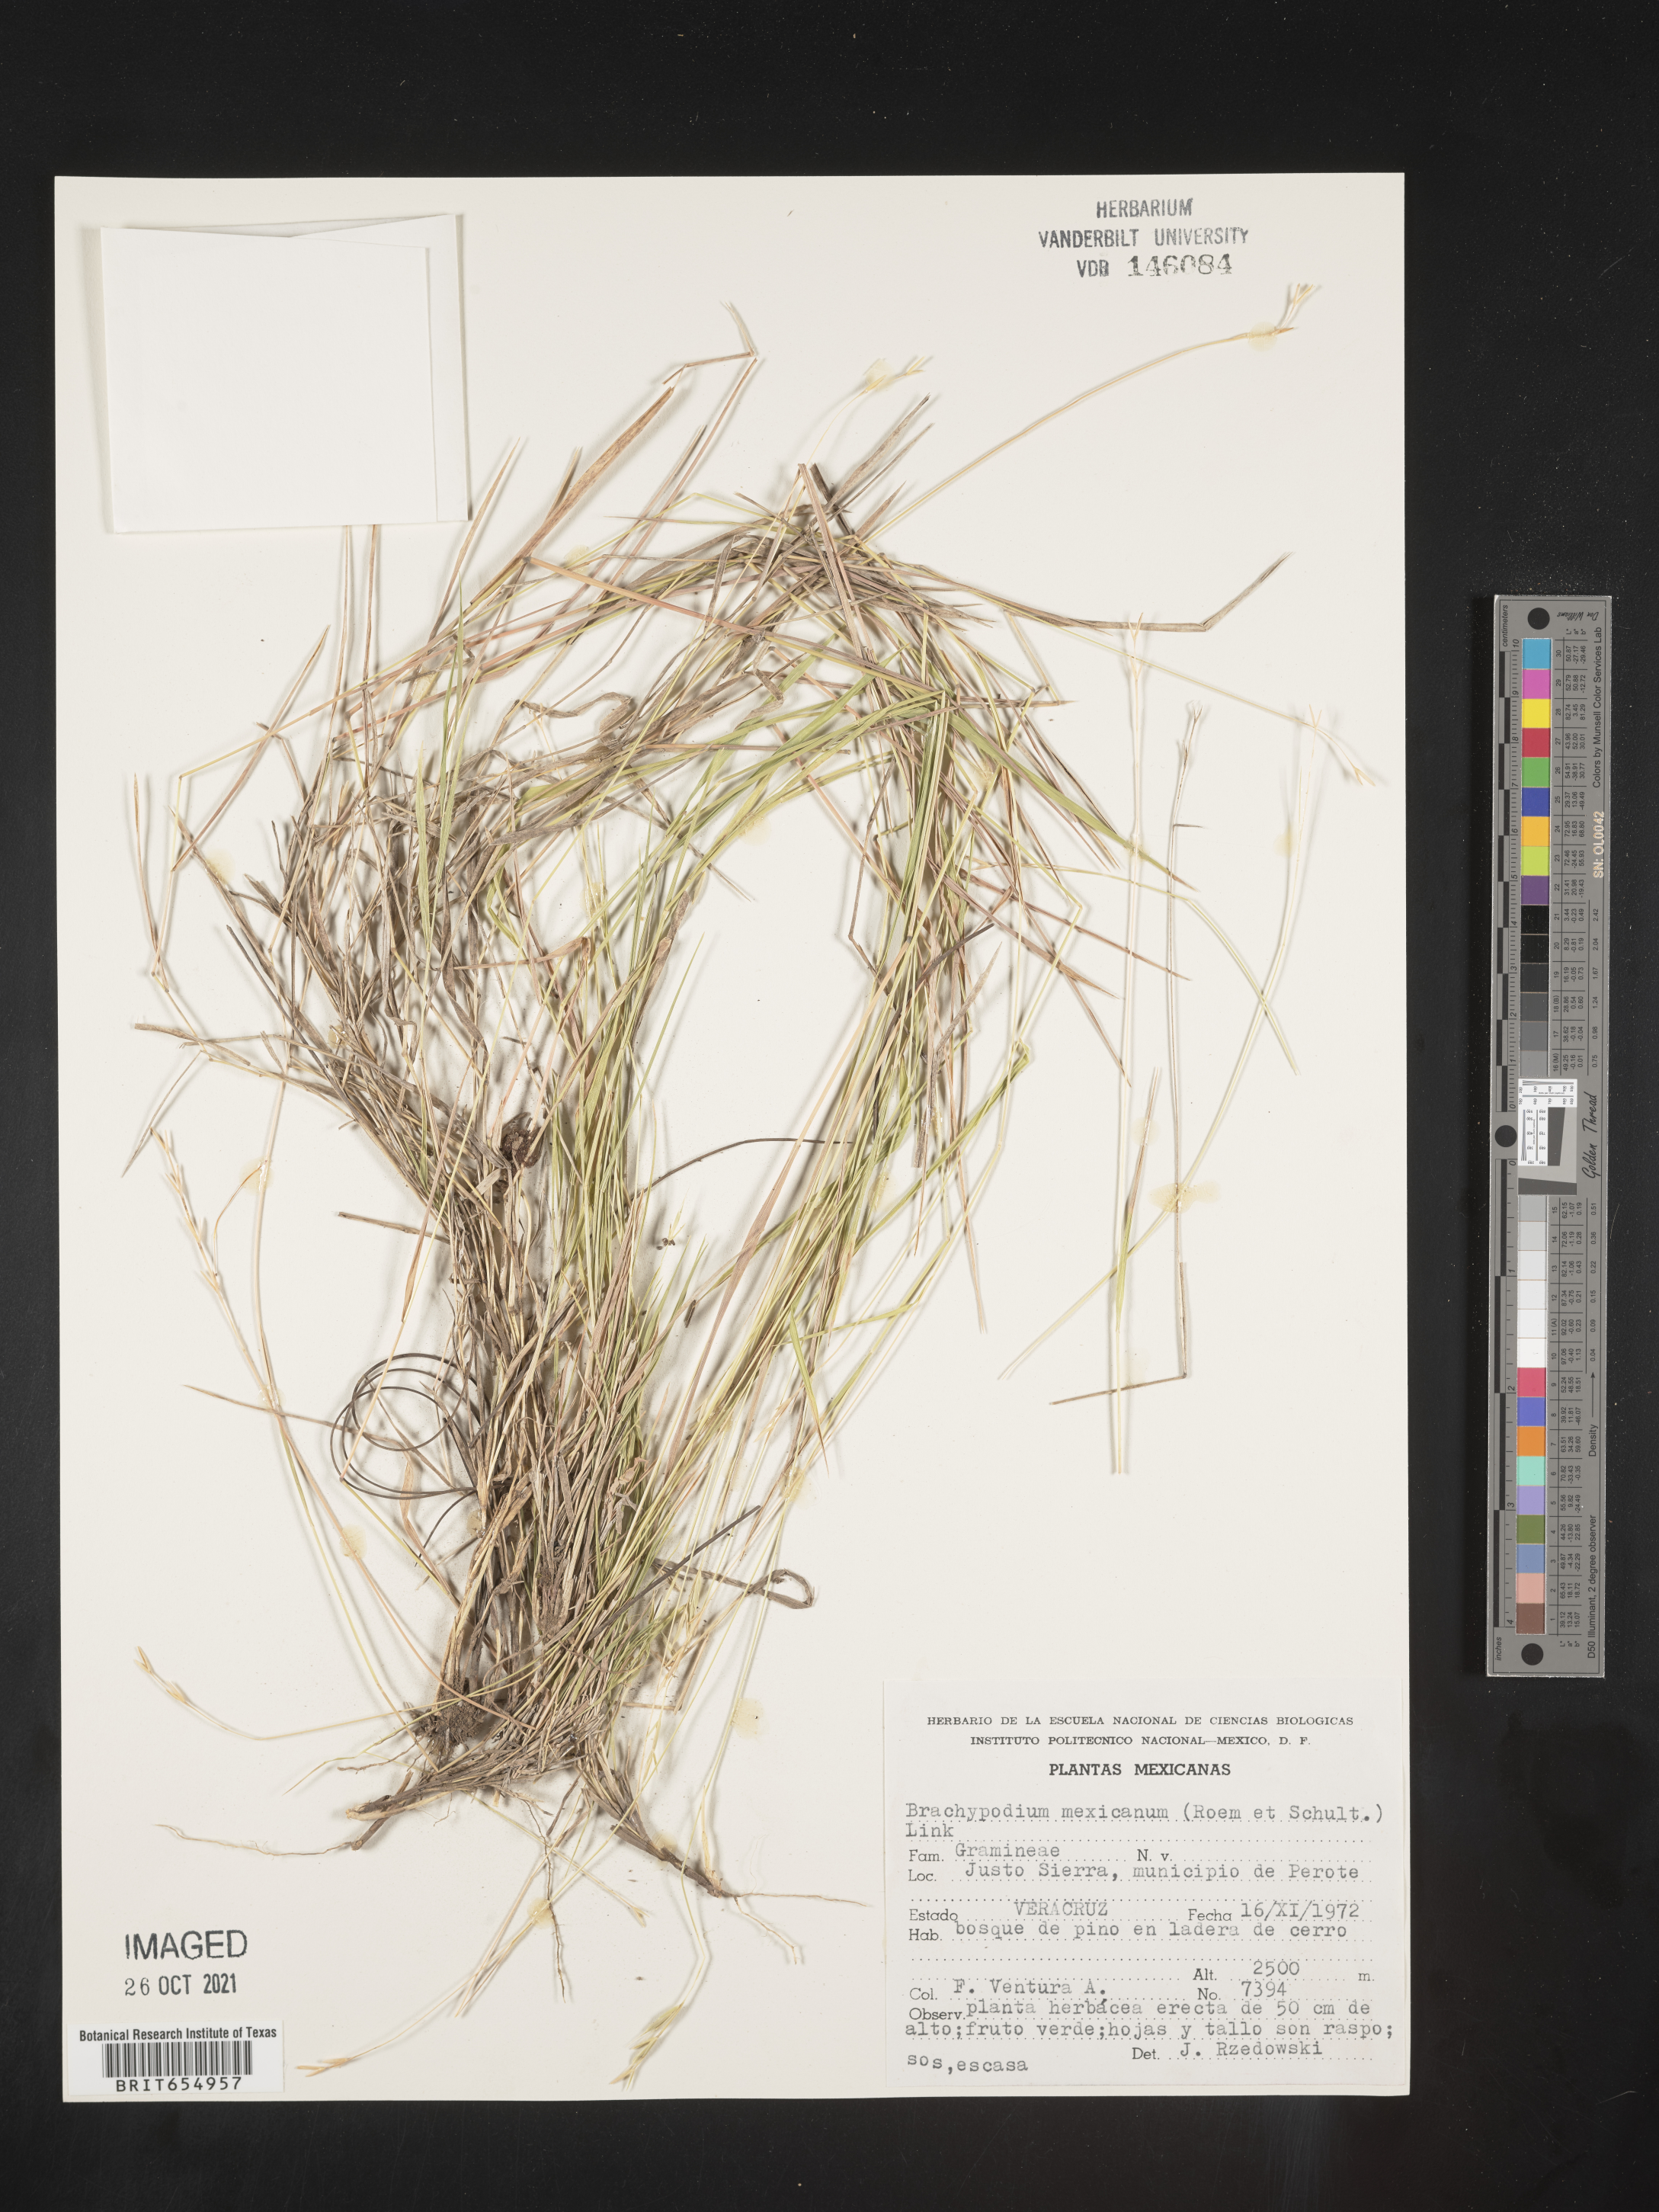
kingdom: Plantae
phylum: Tracheophyta
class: Liliopsida
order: Poales
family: Poaceae
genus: Brachypodium
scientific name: Brachypodium
